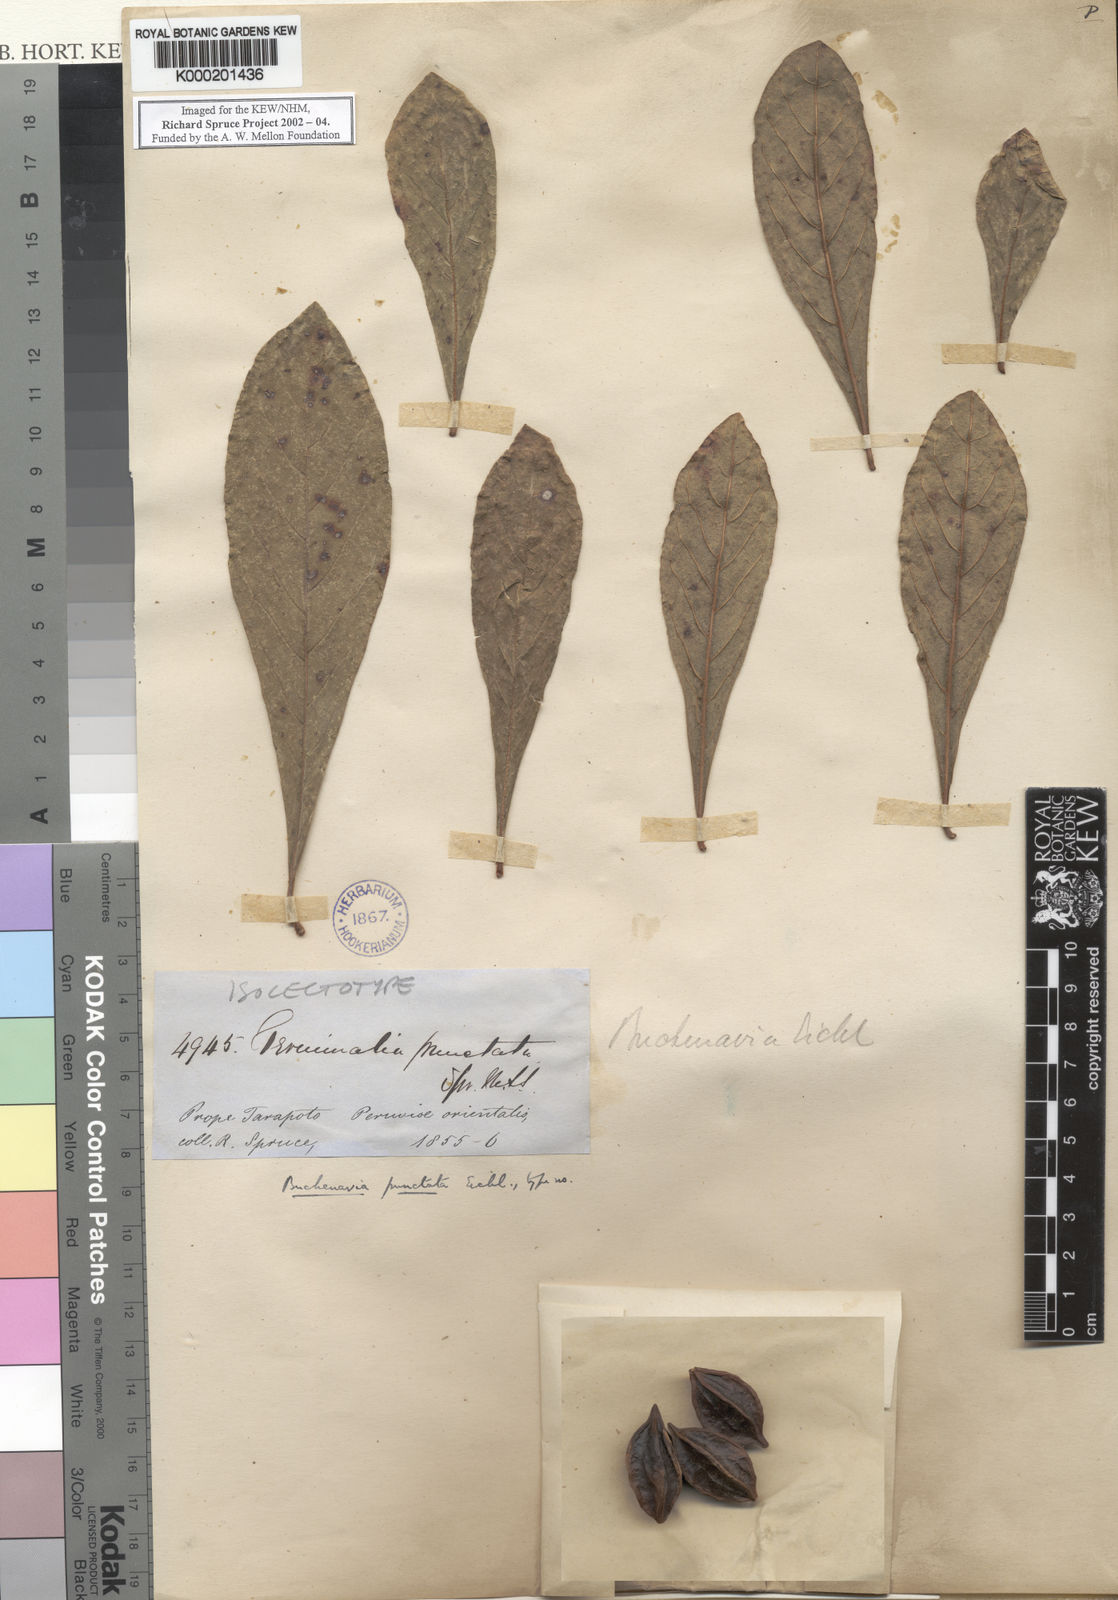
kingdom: Plantae
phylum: Tracheophyta
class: Magnoliopsida
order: Myrtales
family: Combretaceae
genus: Terminalia
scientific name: Terminalia eichleriana
